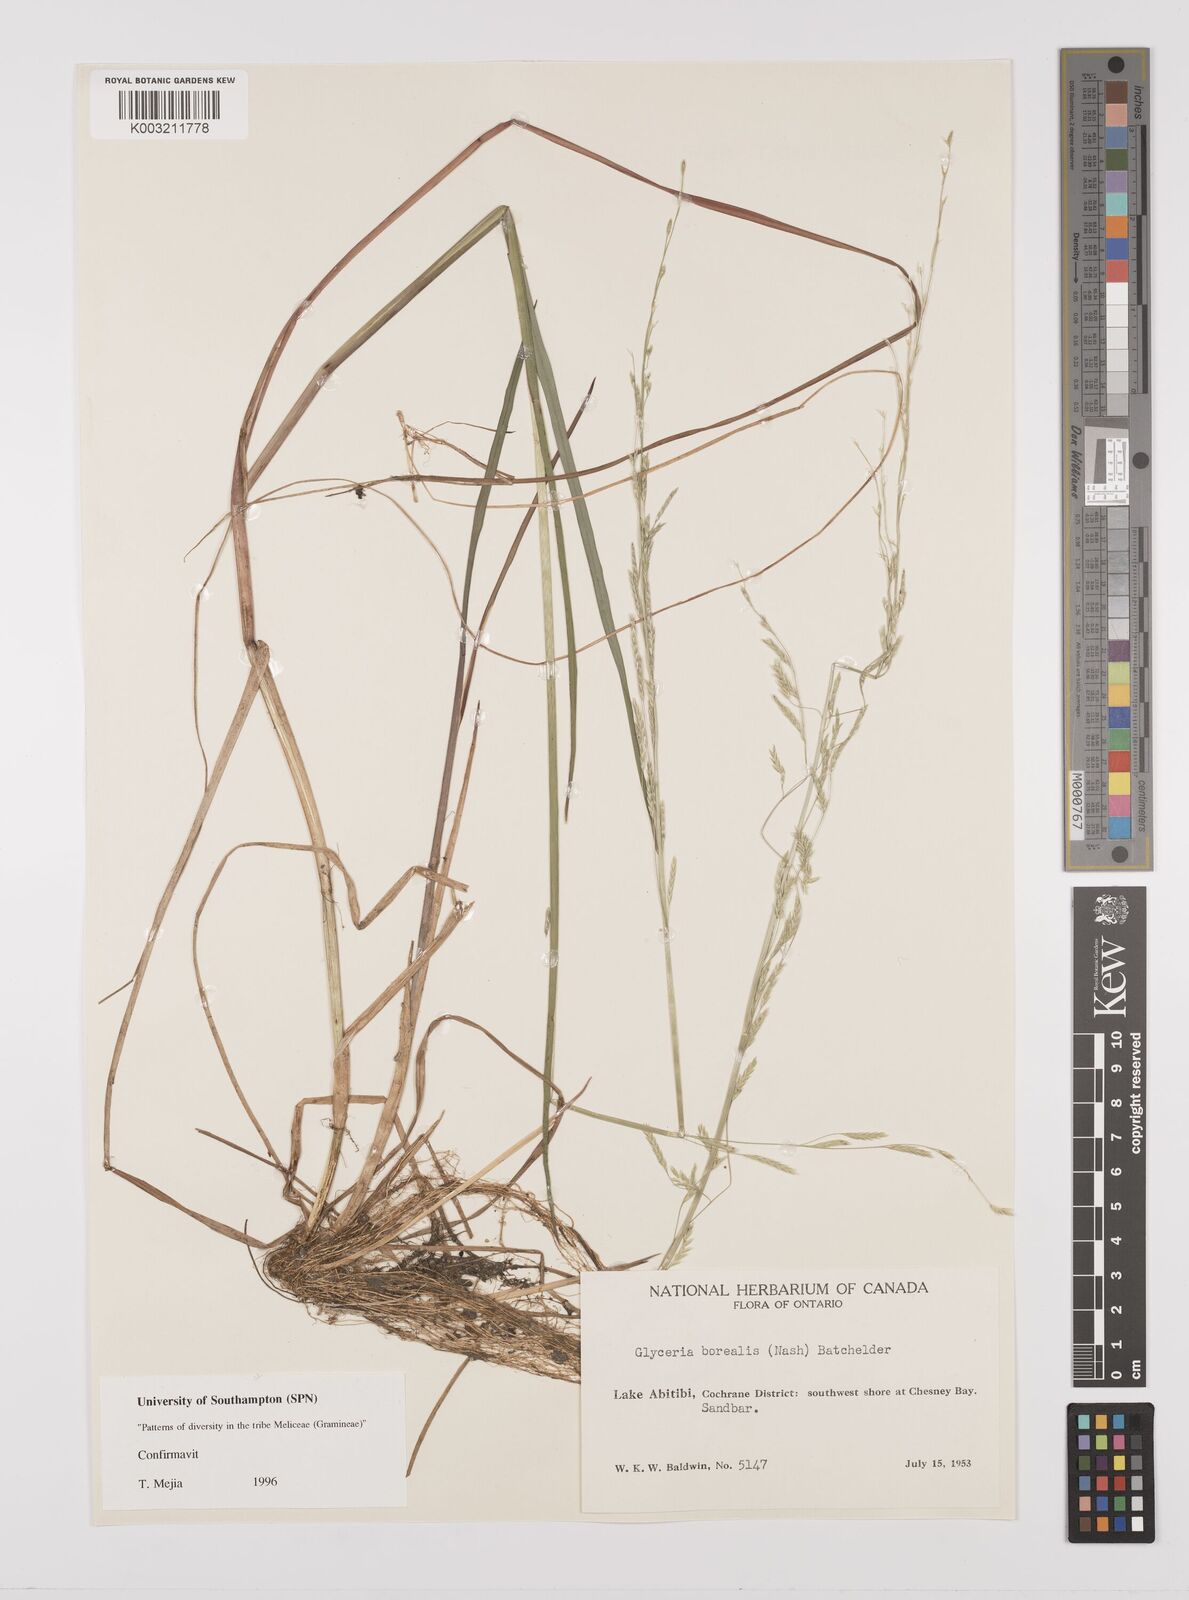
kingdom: Plantae
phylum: Tracheophyta
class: Liliopsida
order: Poales
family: Poaceae
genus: Glyceria
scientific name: Glyceria borealis
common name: Boreal glyceria
